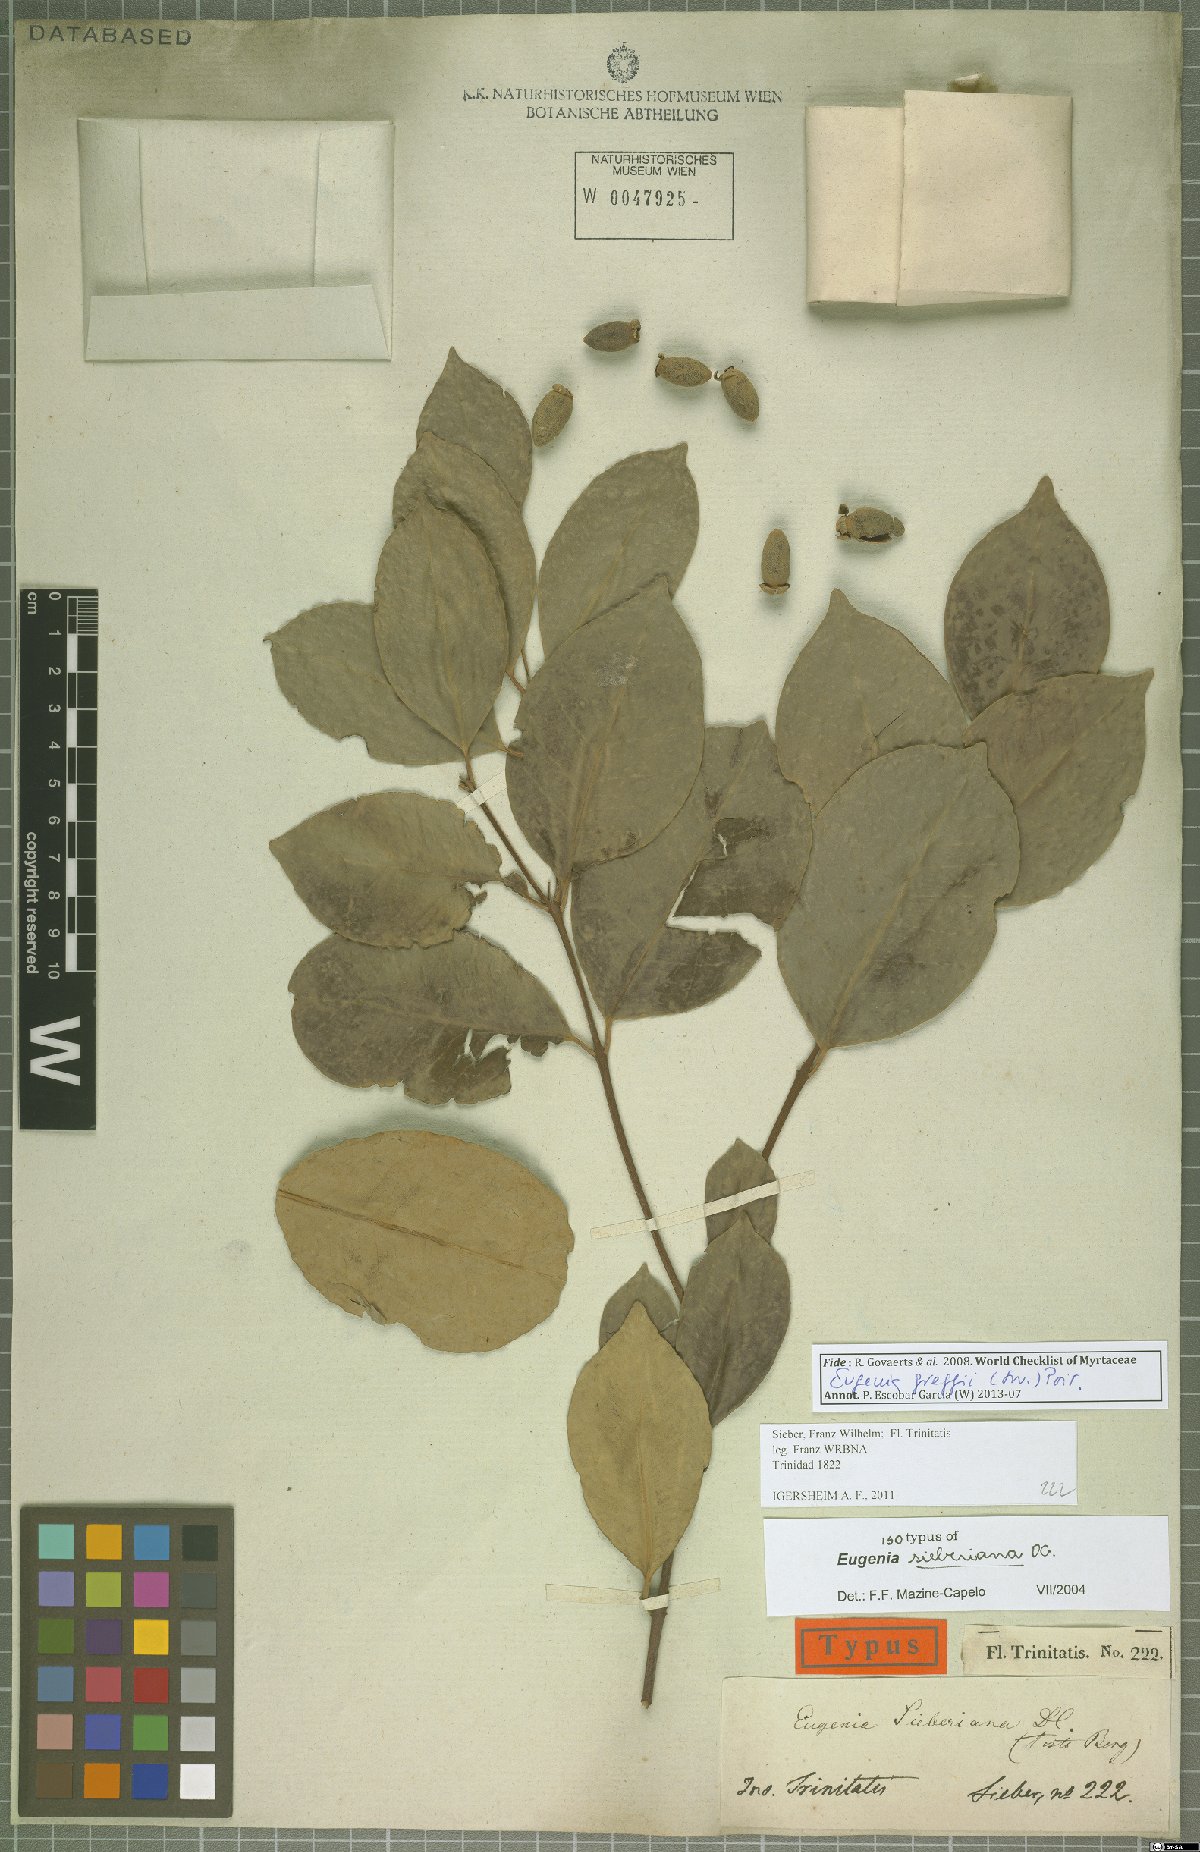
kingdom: Plantae
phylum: Tracheophyta
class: Magnoliopsida
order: Myrtales
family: Myrtaceae
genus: Eugenia
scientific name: Eugenia greggii
